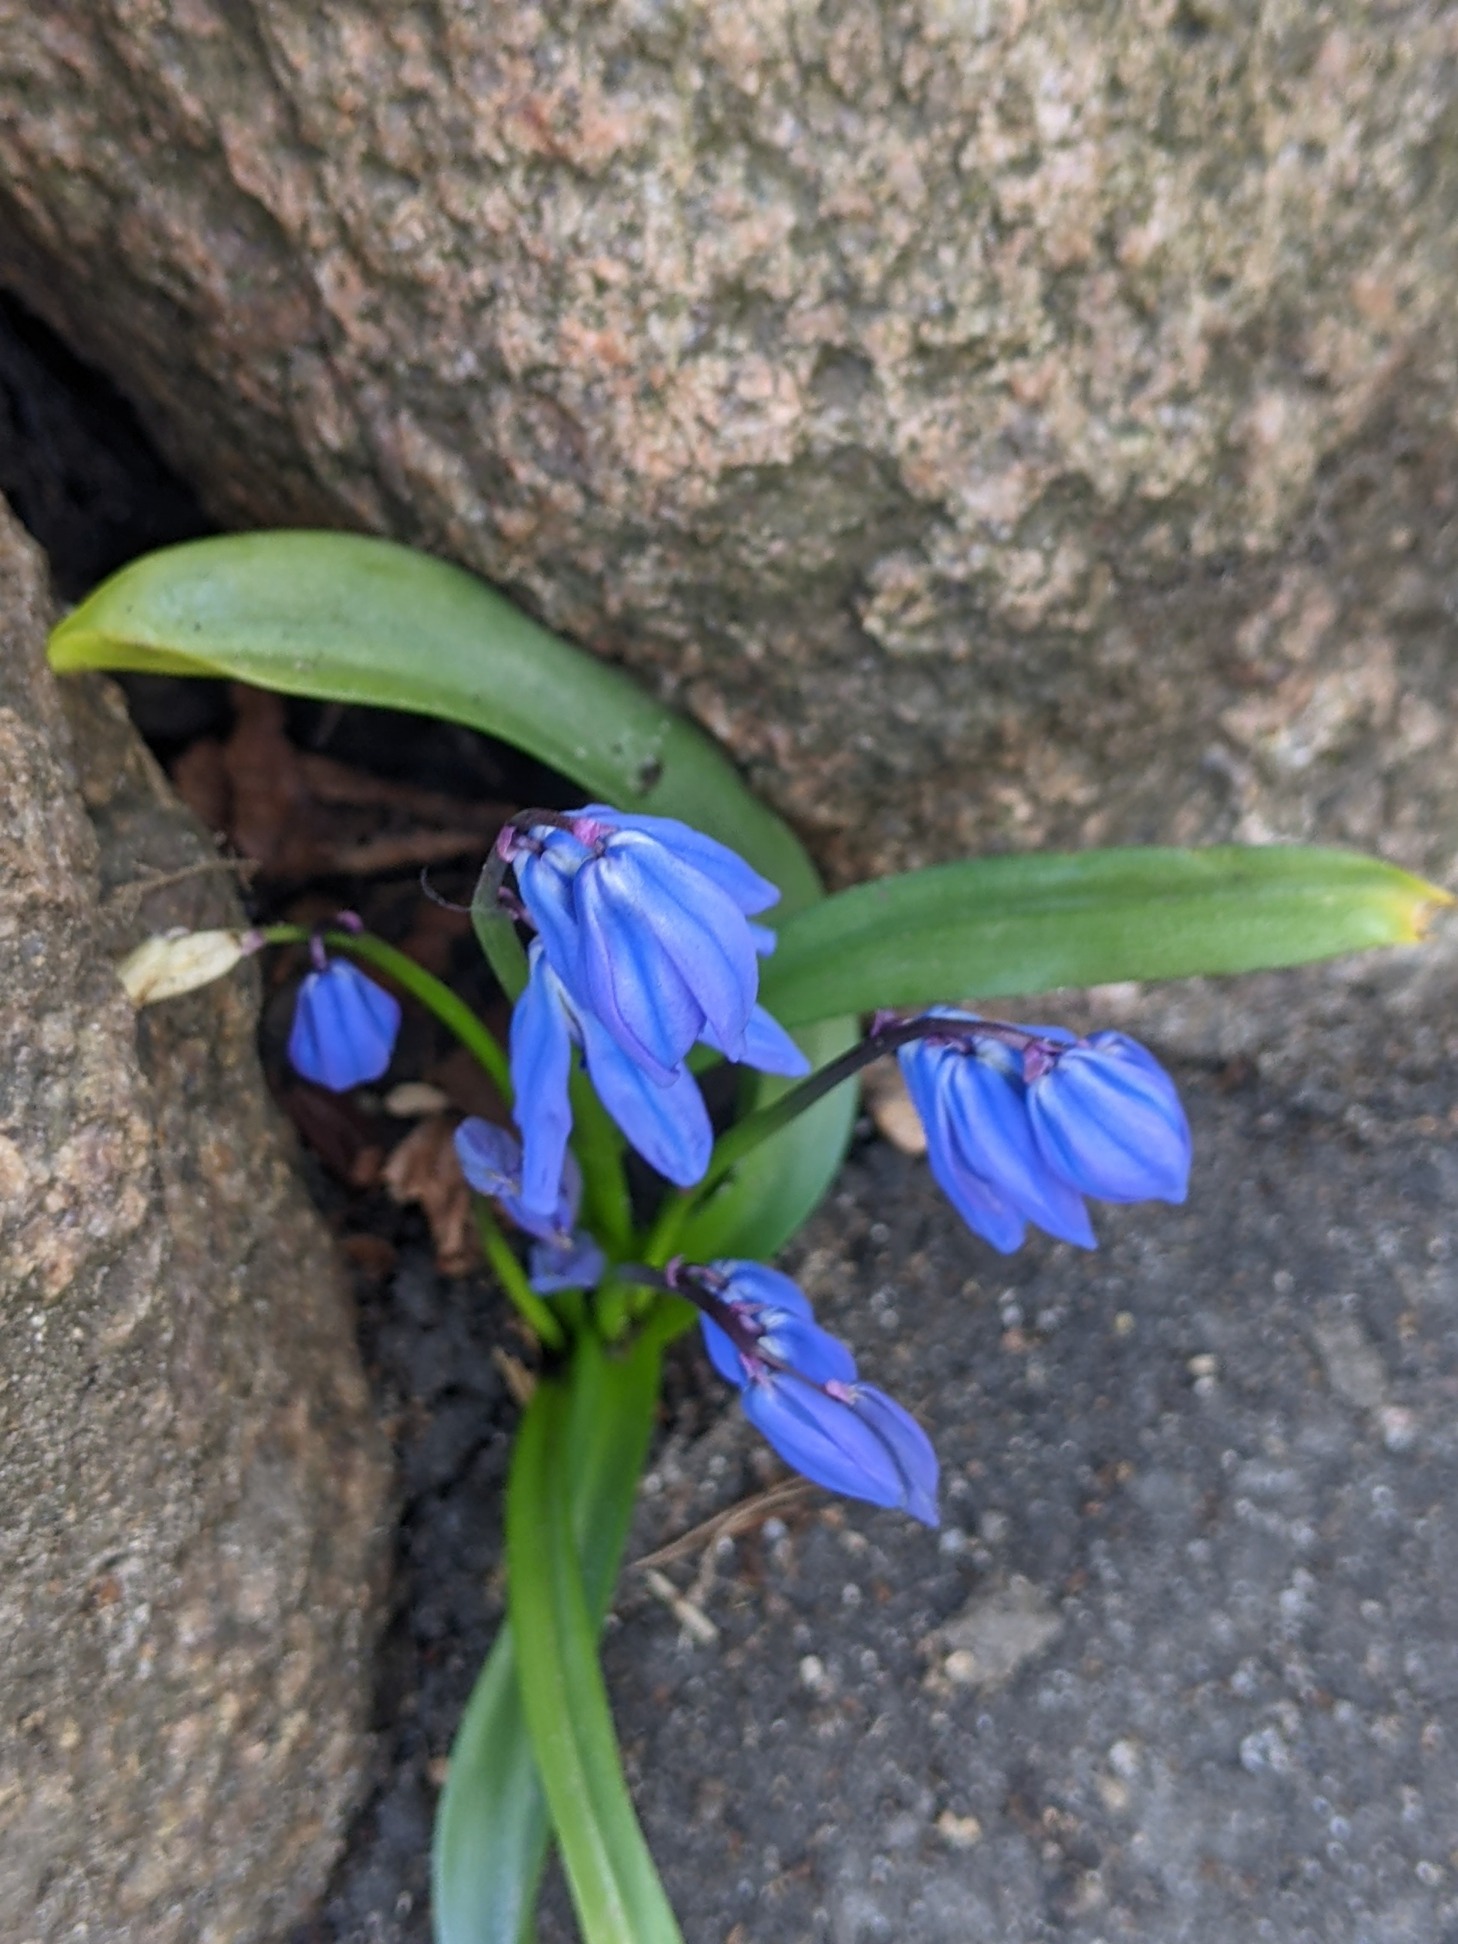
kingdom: Plantae
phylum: Tracheophyta
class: Liliopsida
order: Asparagales
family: Asparagaceae
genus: Scilla
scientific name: Scilla siberica
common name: Russisk skilla
